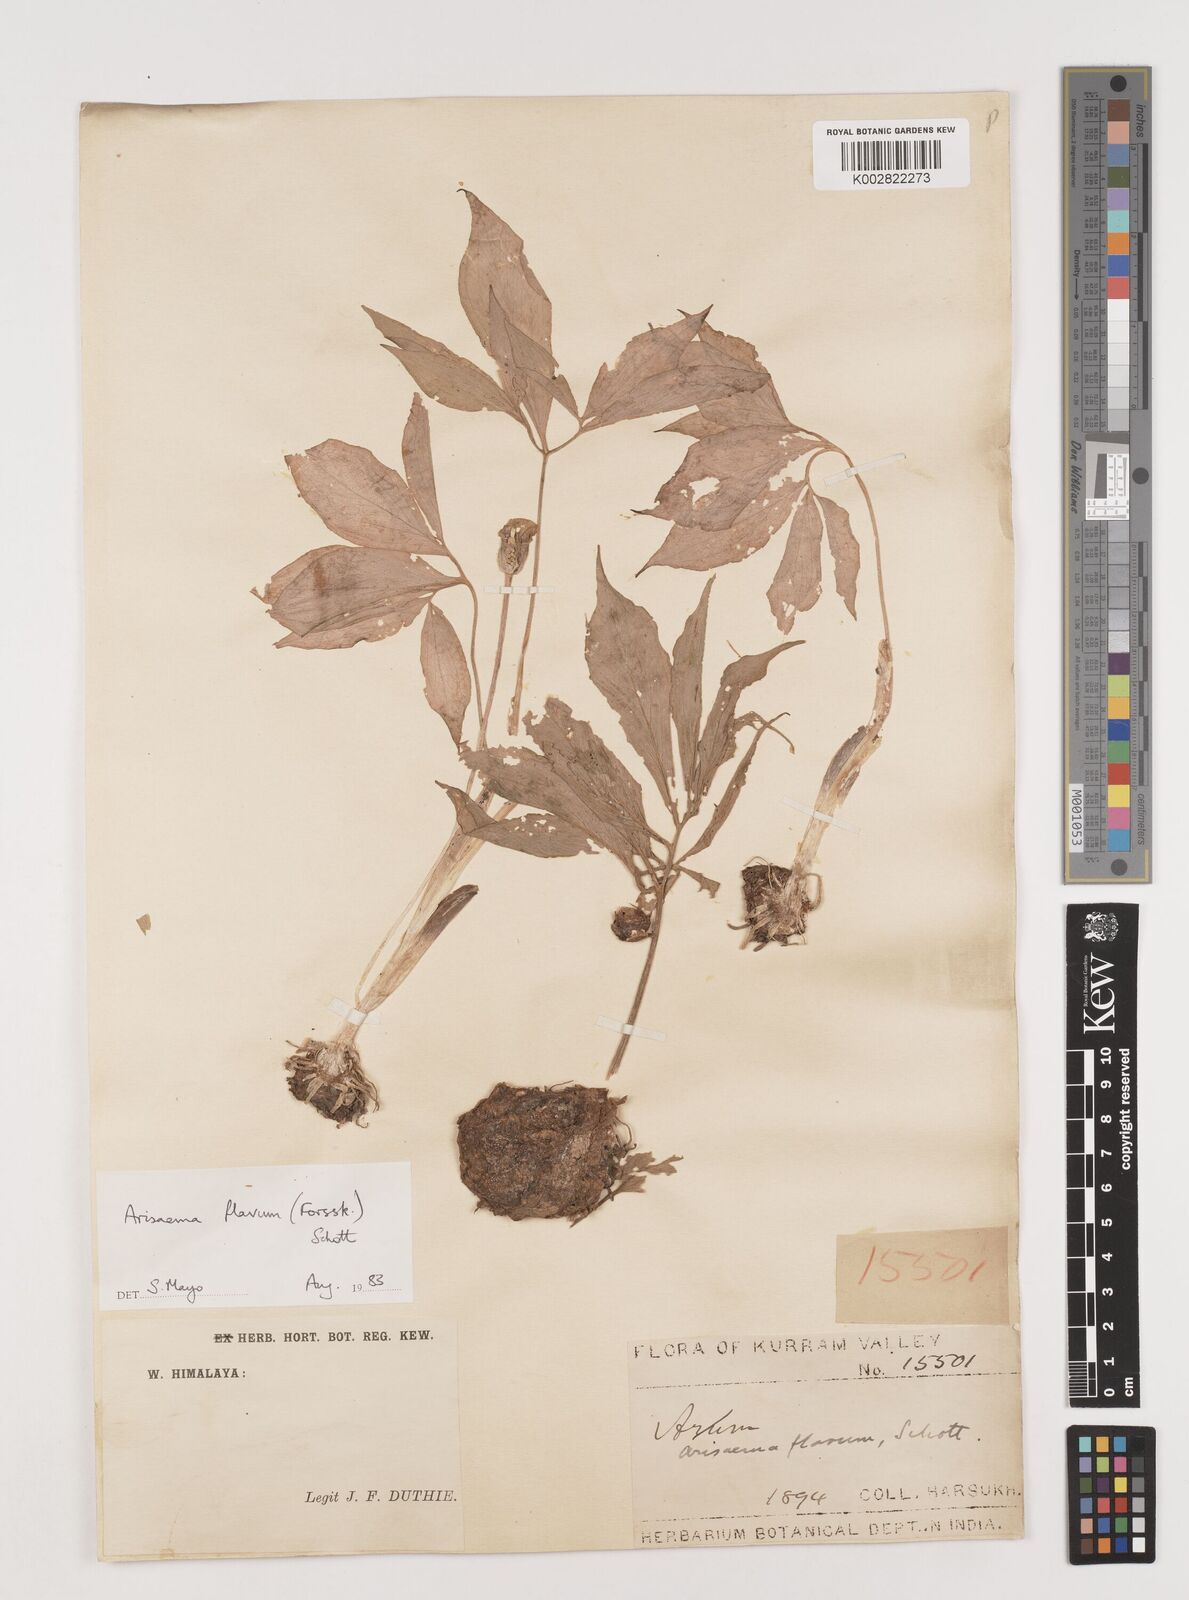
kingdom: Plantae
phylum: Tracheophyta
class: Liliopsida
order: Alismatales
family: Araceae
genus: Arisaema
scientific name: Arisaema flavum
